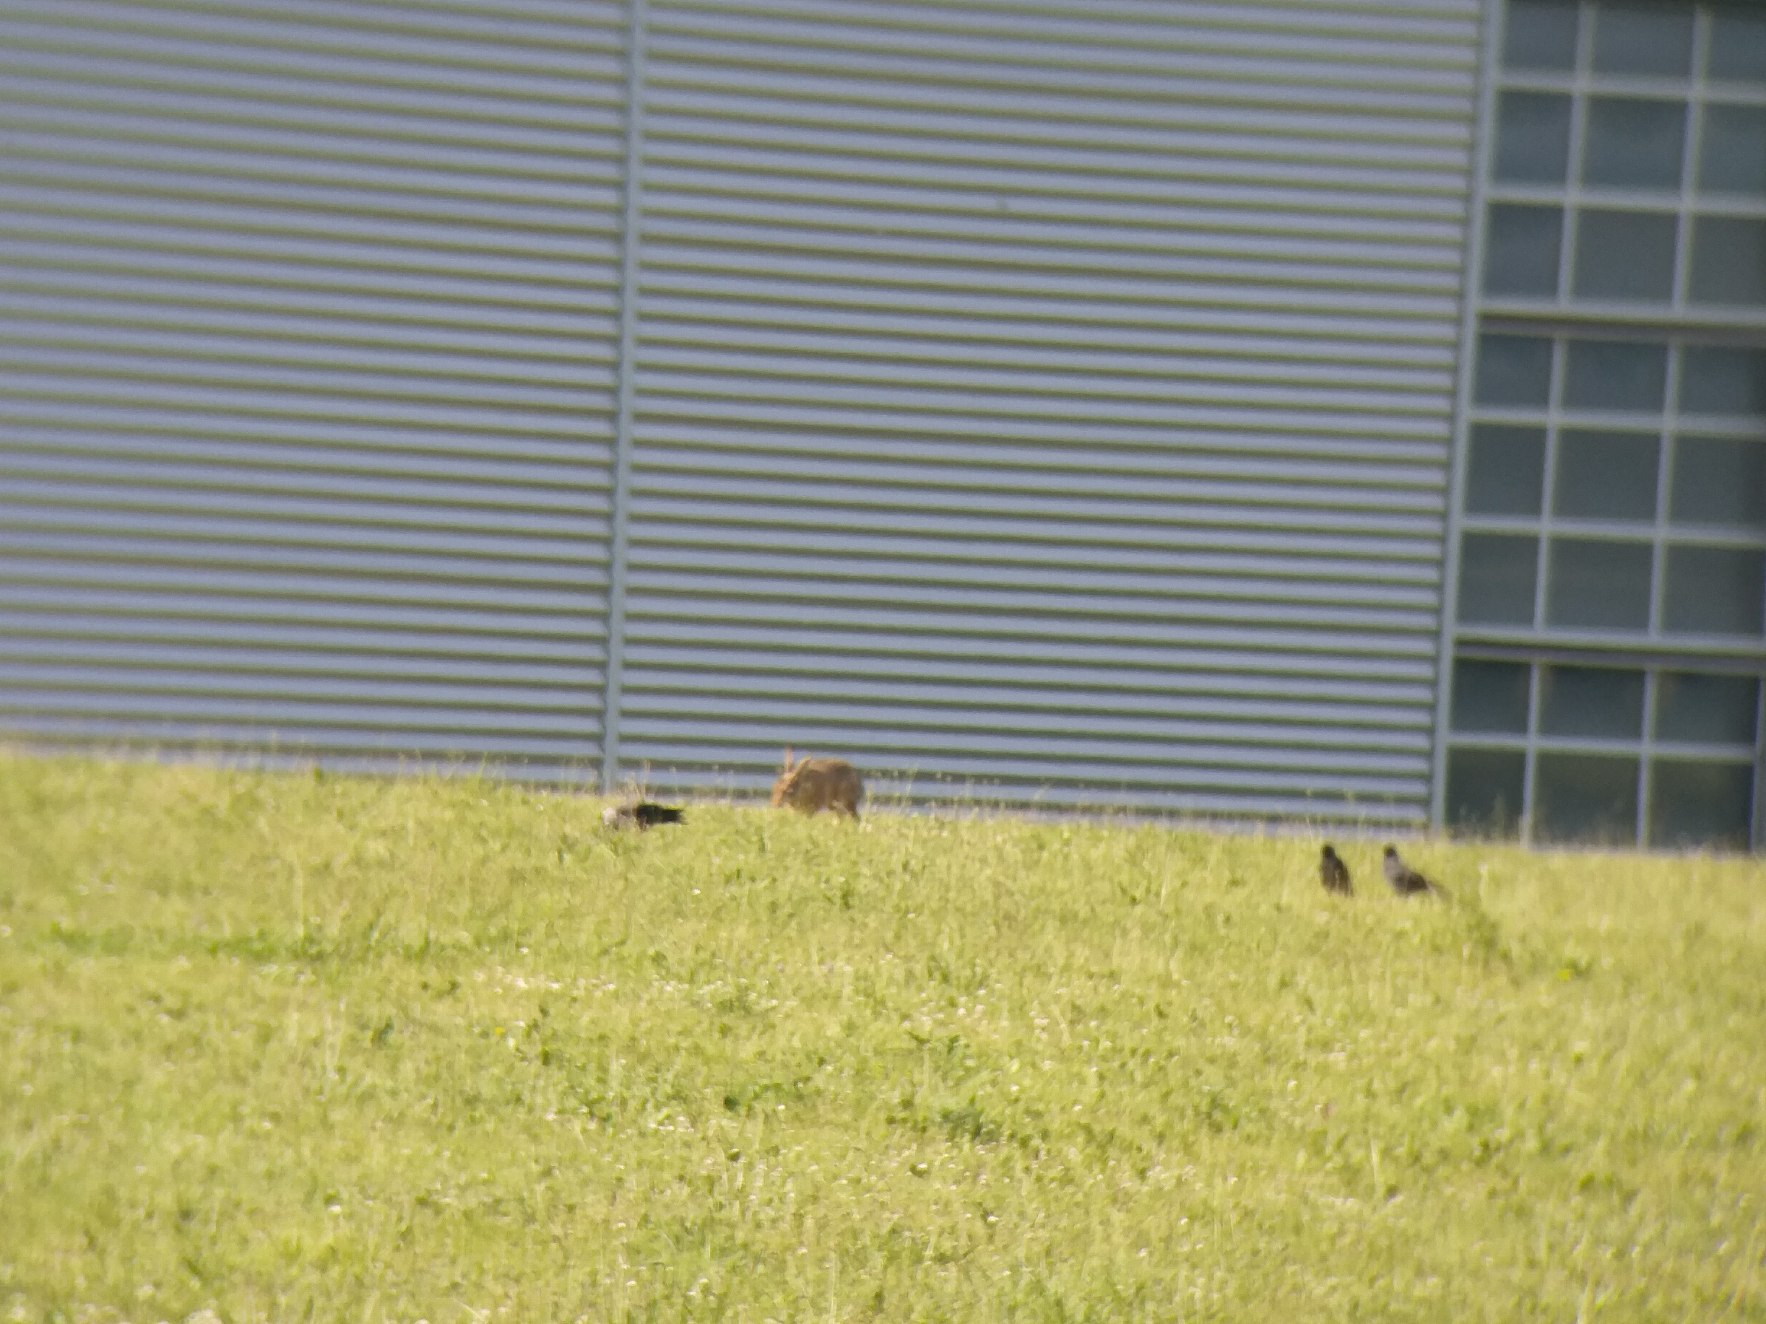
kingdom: Animalia
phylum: Chordata
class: Mammalia
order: Lagomorpha
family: Leporidae
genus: Lepus
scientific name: Lepus europaeus
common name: Hare
